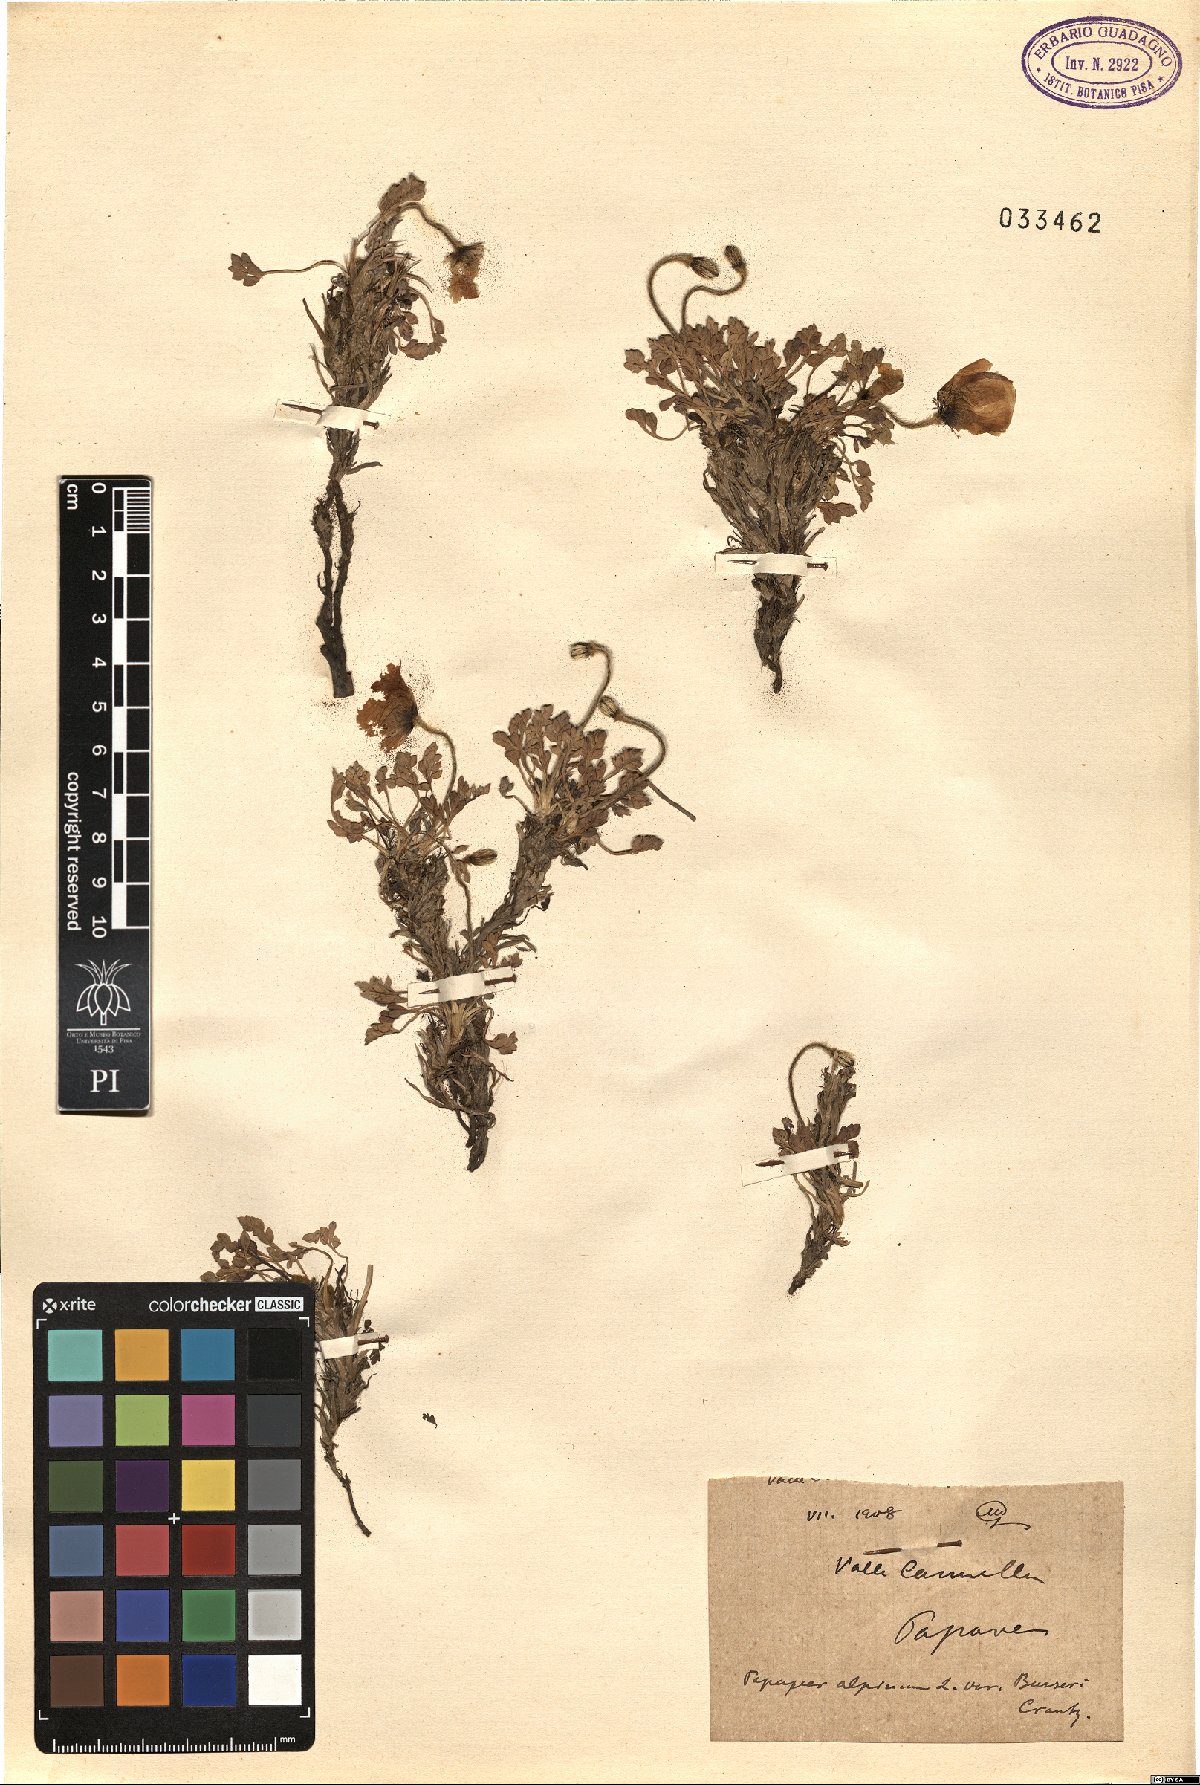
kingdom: Plantae
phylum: Tracheophyta
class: Magnoliopsida
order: Ranunculales
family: Papaveraceae
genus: Papaver
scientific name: Papaver alpinum
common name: Austrian poppy
